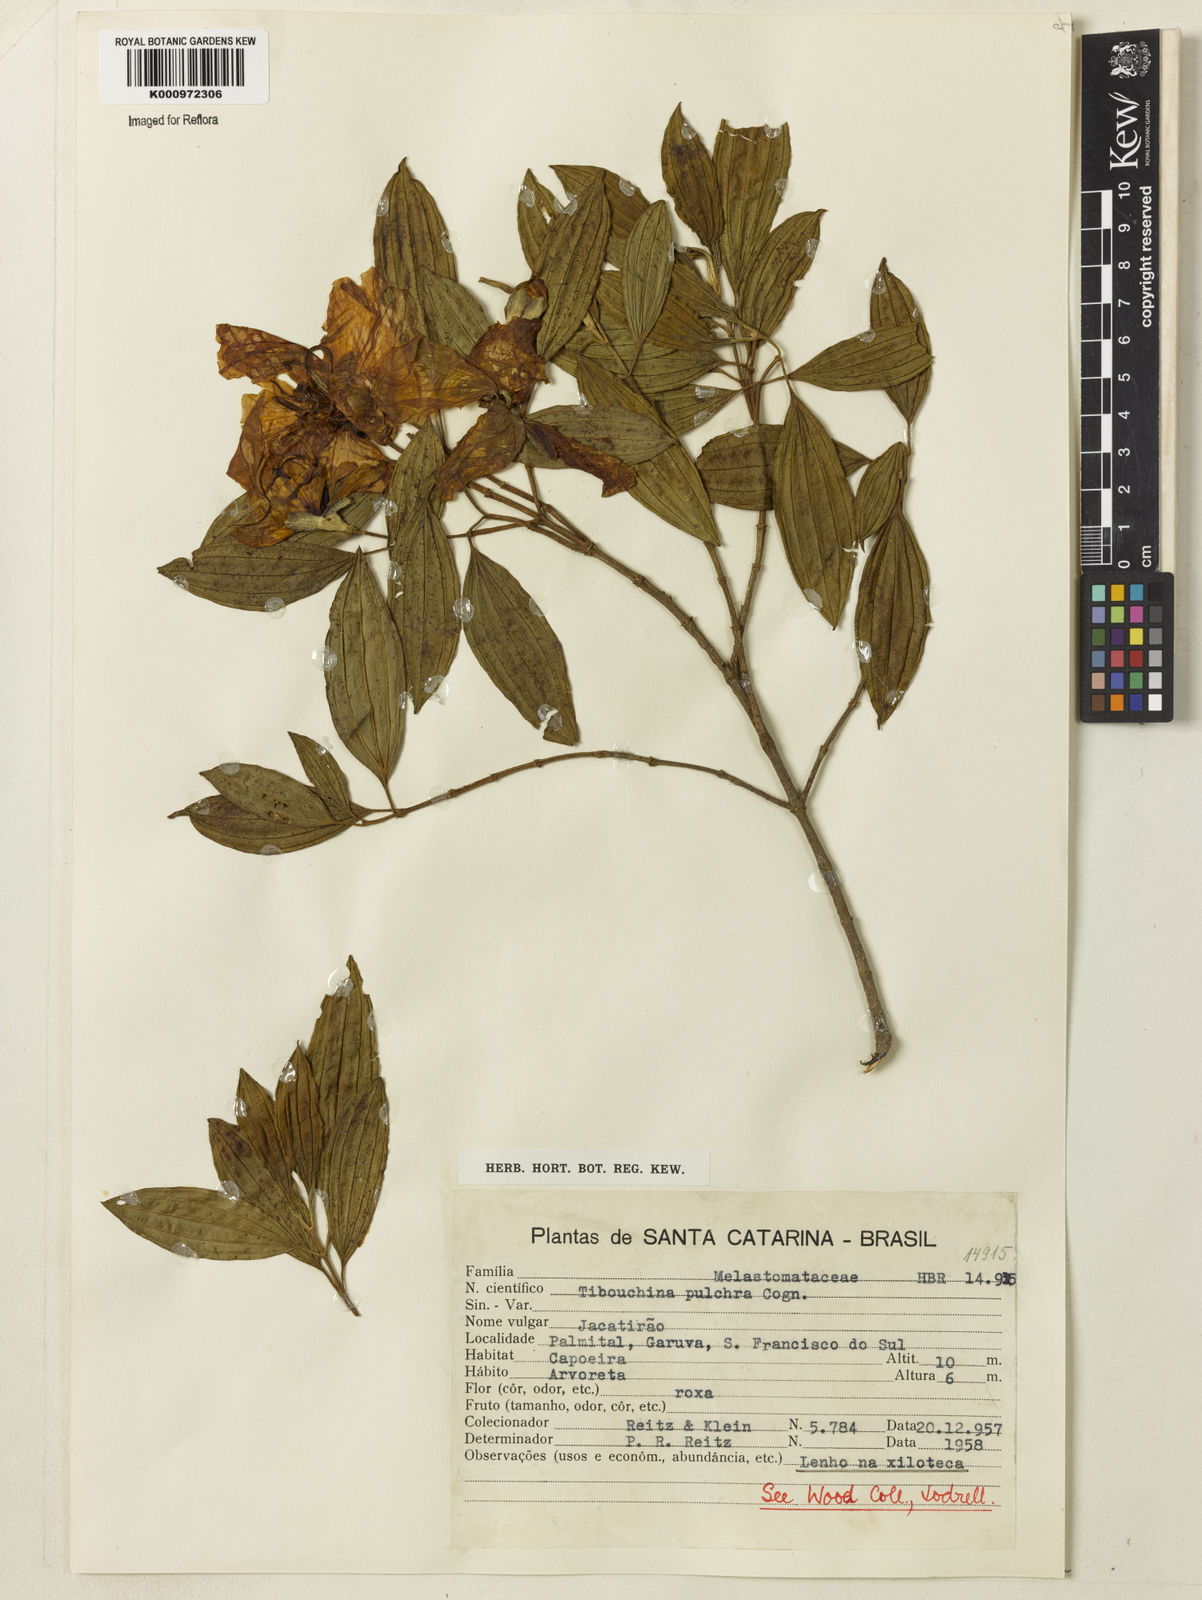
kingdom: Plantae
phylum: Tracheophyta
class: Magnoliopsida
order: Myrtales
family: Melastomataceae
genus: Pleroma
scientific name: Pleroma raddianum
